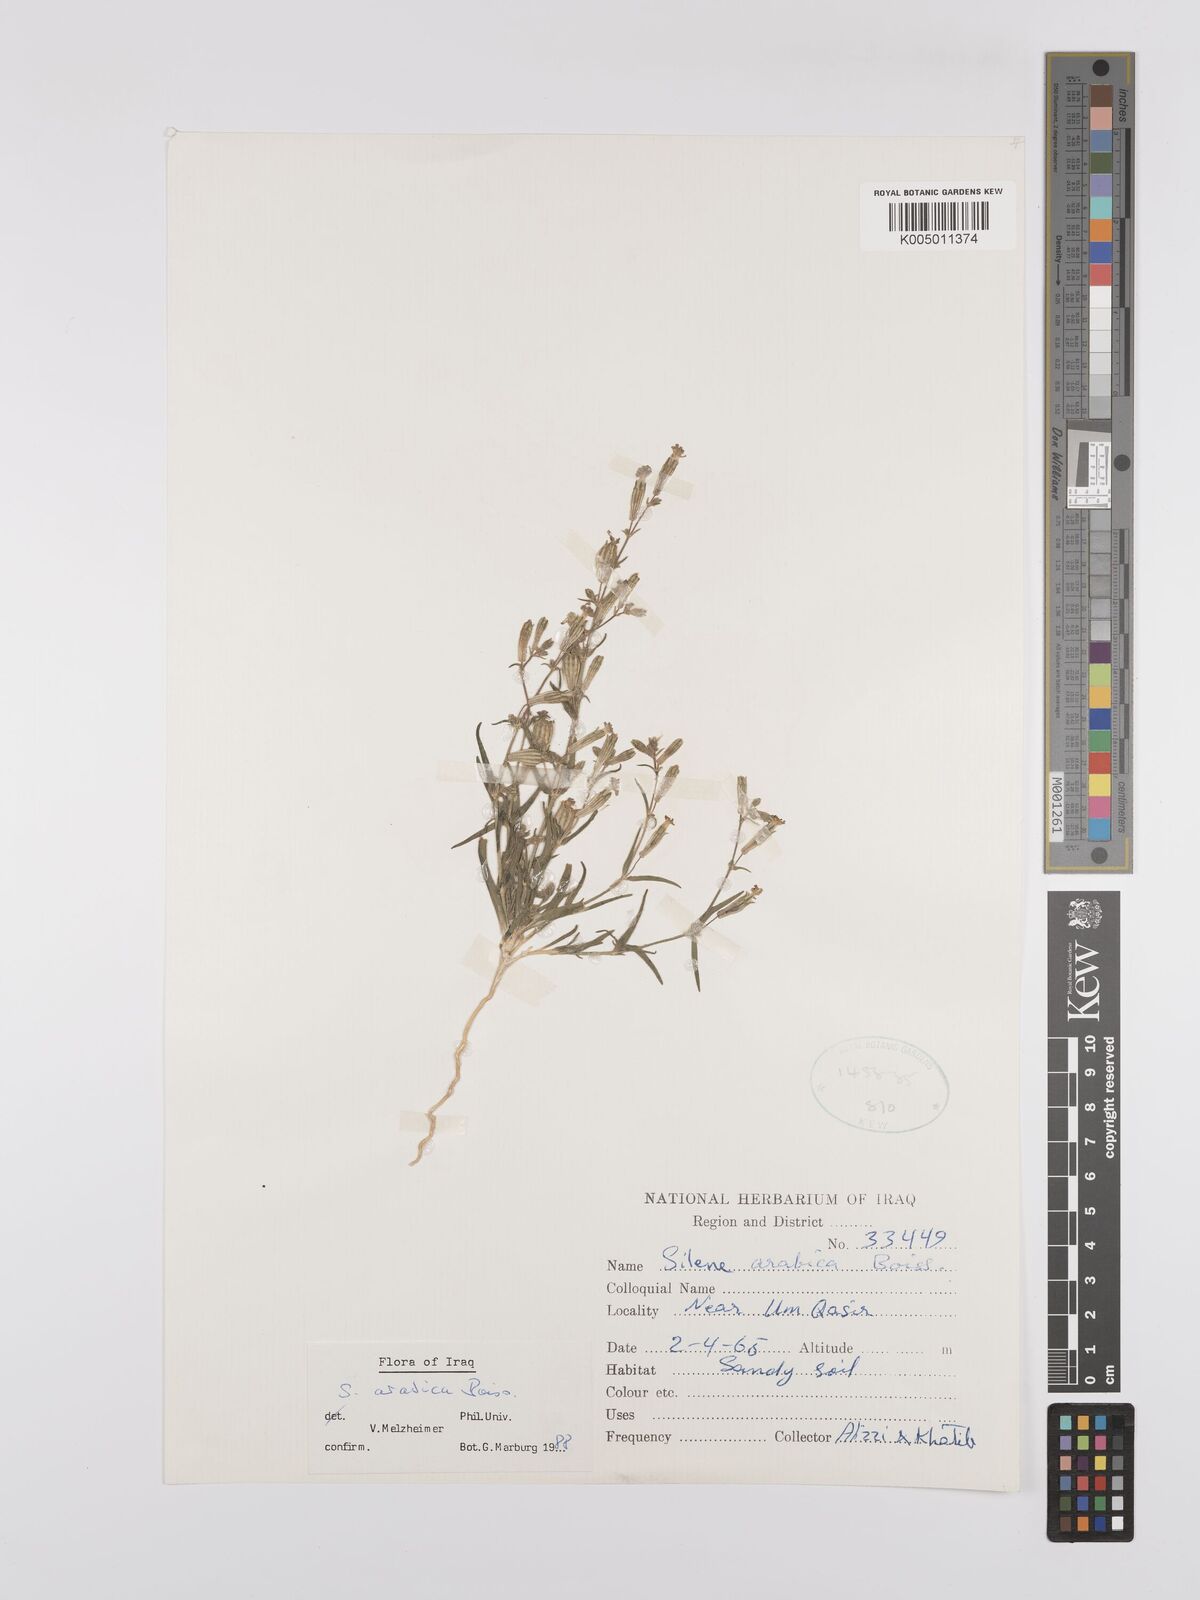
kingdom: Plantae
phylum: Tracheophyta
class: Magnoliopsida
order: Caryophyllales
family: Caryophyllaceae
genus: Silene
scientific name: Silene arabica
